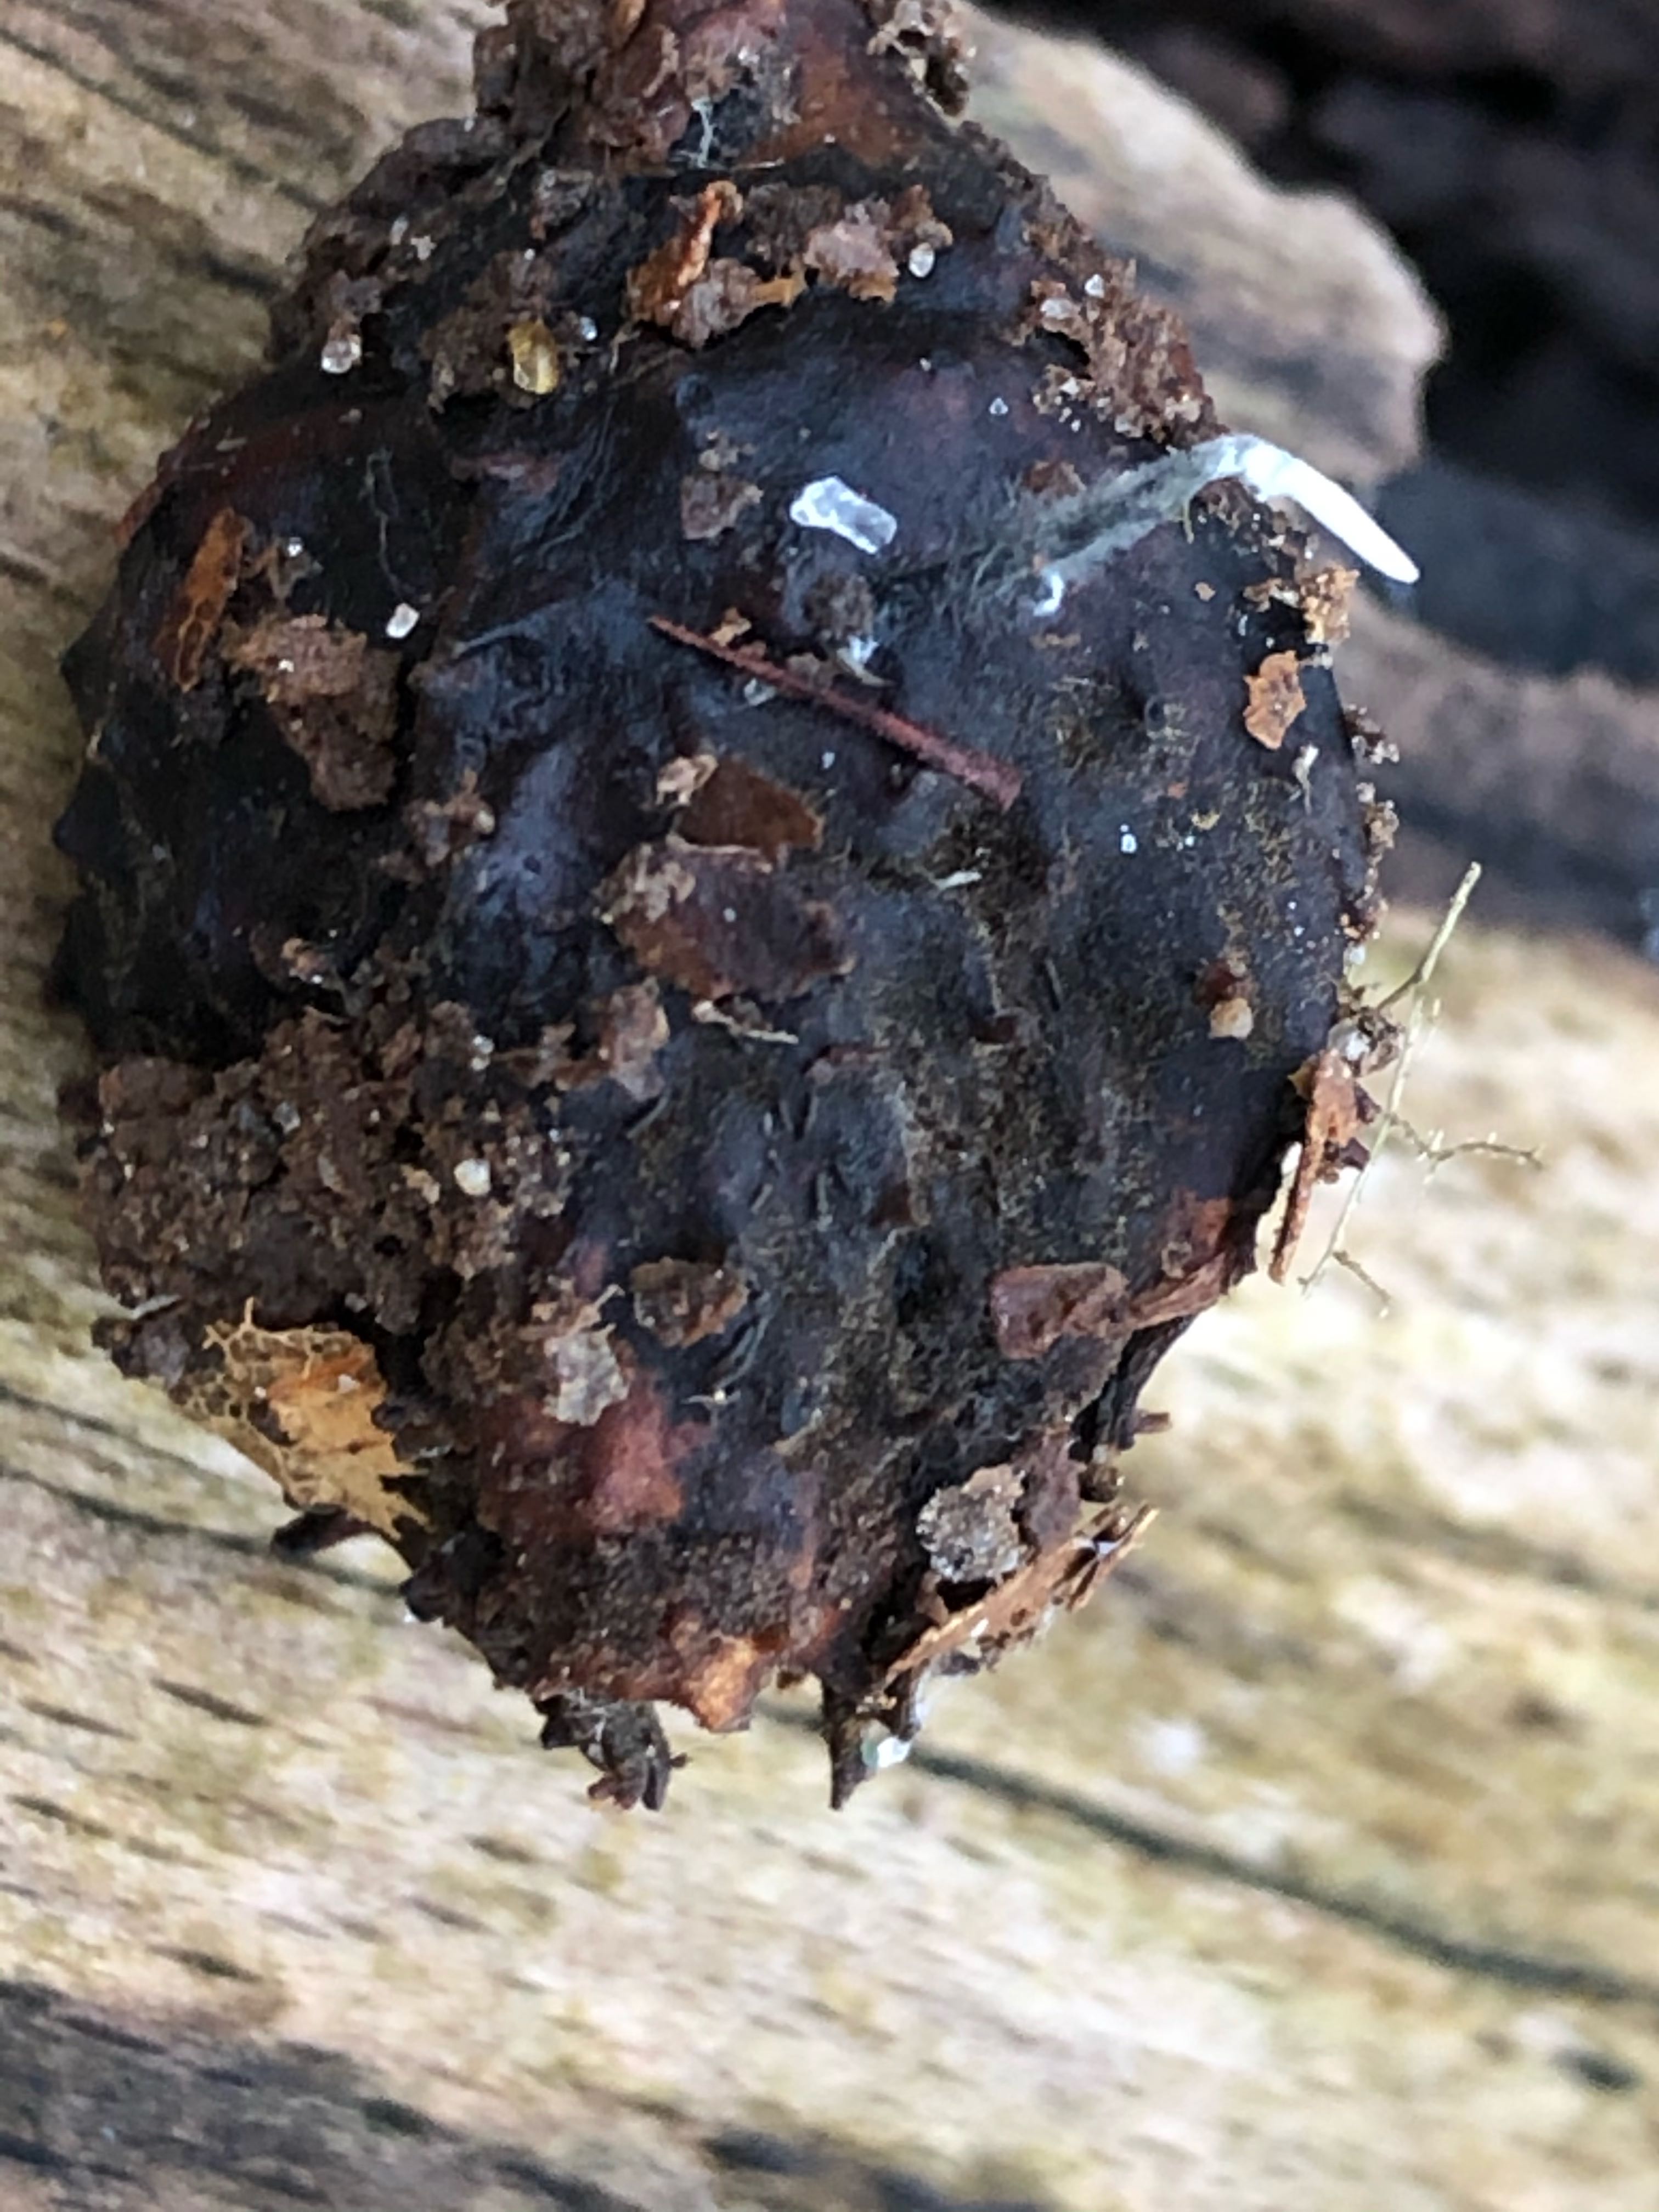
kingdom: Fungi
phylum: Ascomycota
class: Sordariomycetes
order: Xylariales
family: Xylariaceae
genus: Xylaria
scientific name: Xylaria carpophila
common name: bogskål-stødsvamp
